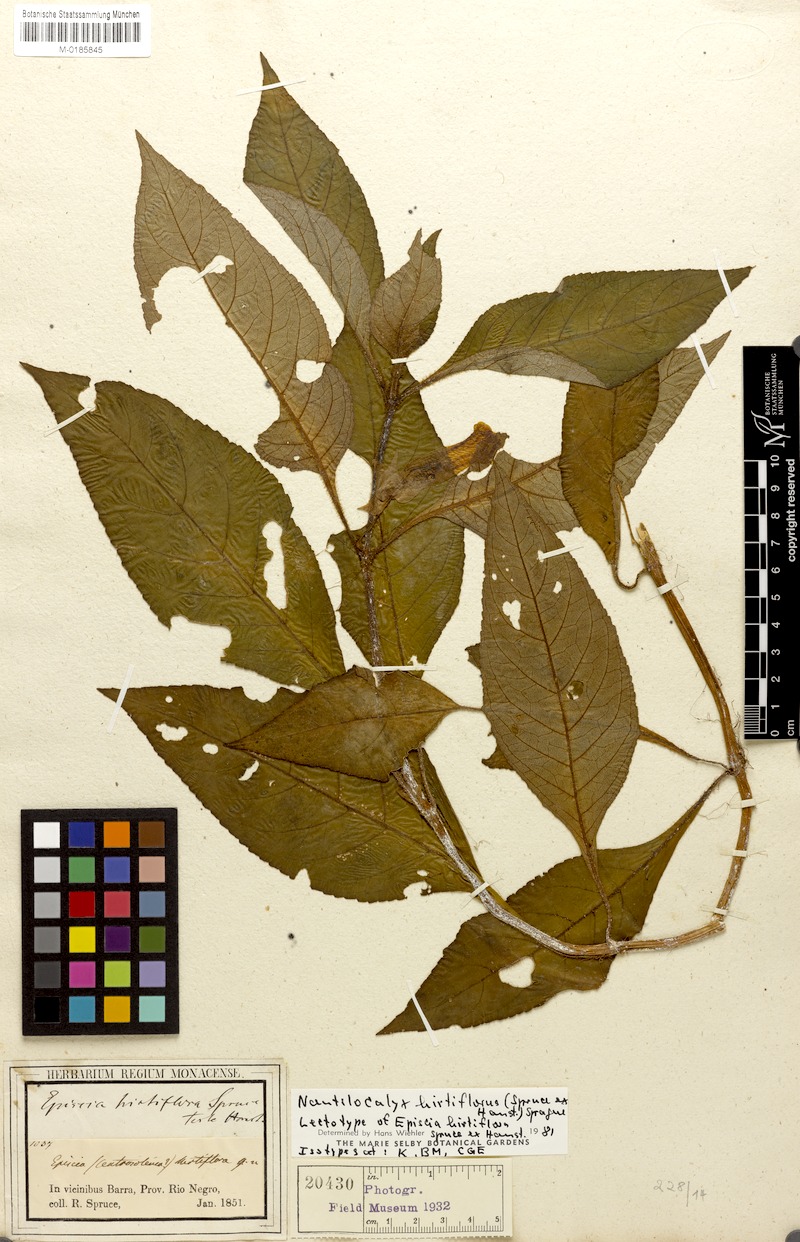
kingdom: Plantae
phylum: Tracheophyta
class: Magnoliopsida
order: Lamiales
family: Gesneriaceae
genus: Nautilocalyx
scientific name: Nautilocalyx hirtiflorus
